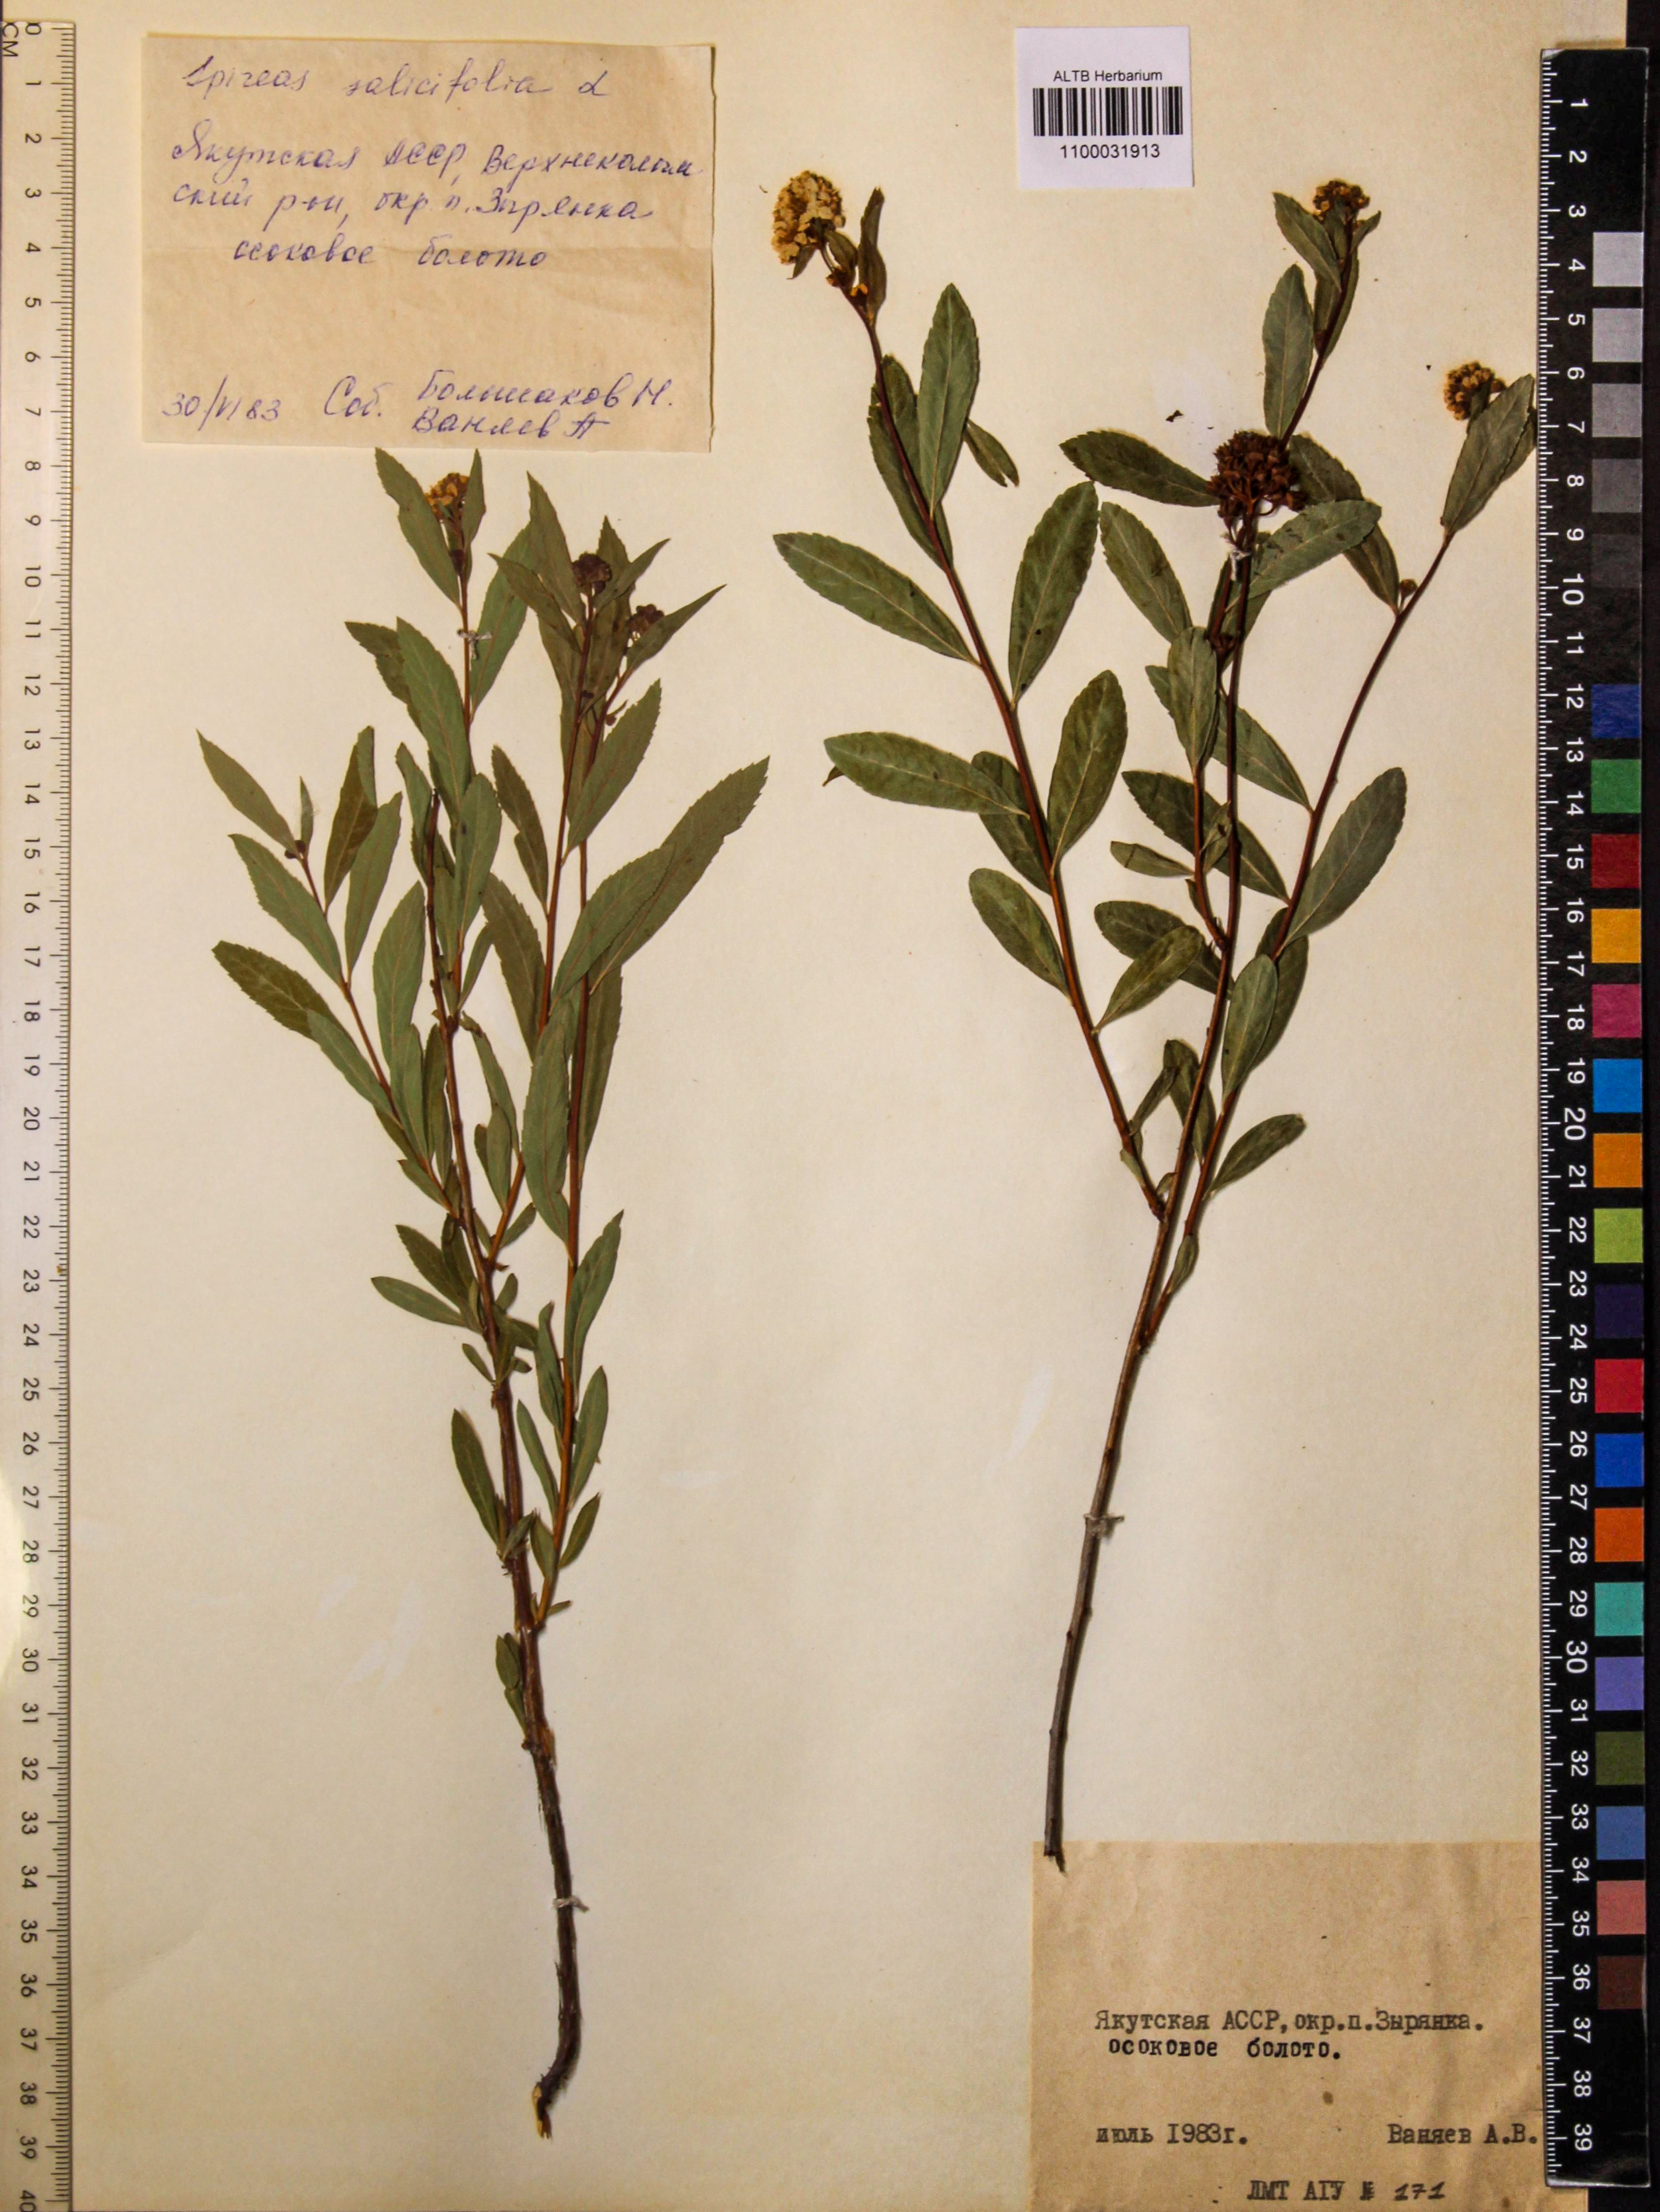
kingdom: Plantae
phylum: Tracheophyta
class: Magnoliopsida
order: Rosales
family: Rosaceae
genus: Spiraea
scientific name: Spiraea salicifolia
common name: Bridewort
